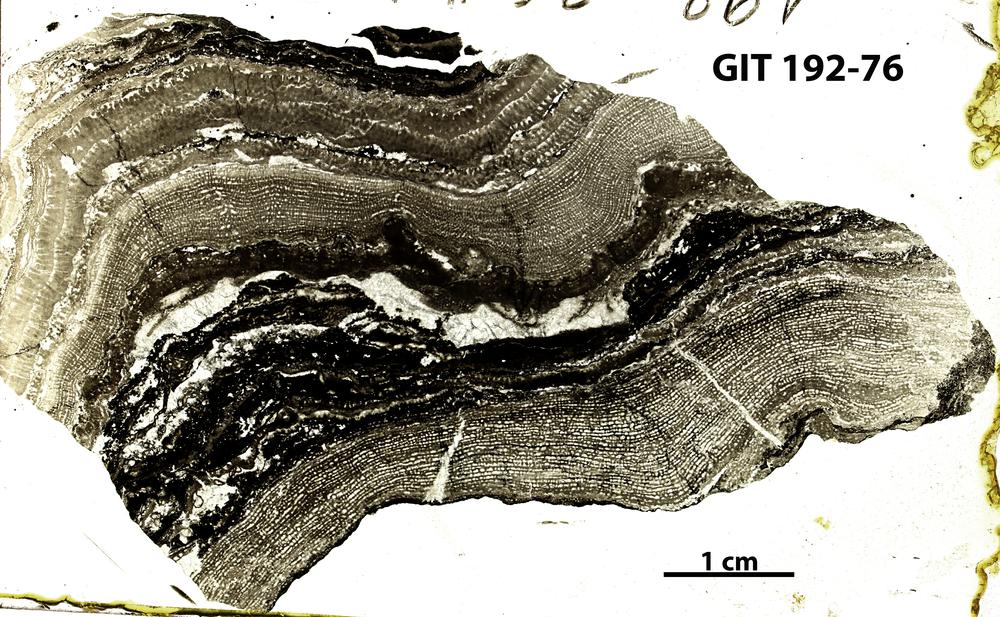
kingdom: Animalia
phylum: Porifera
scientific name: Porifera
